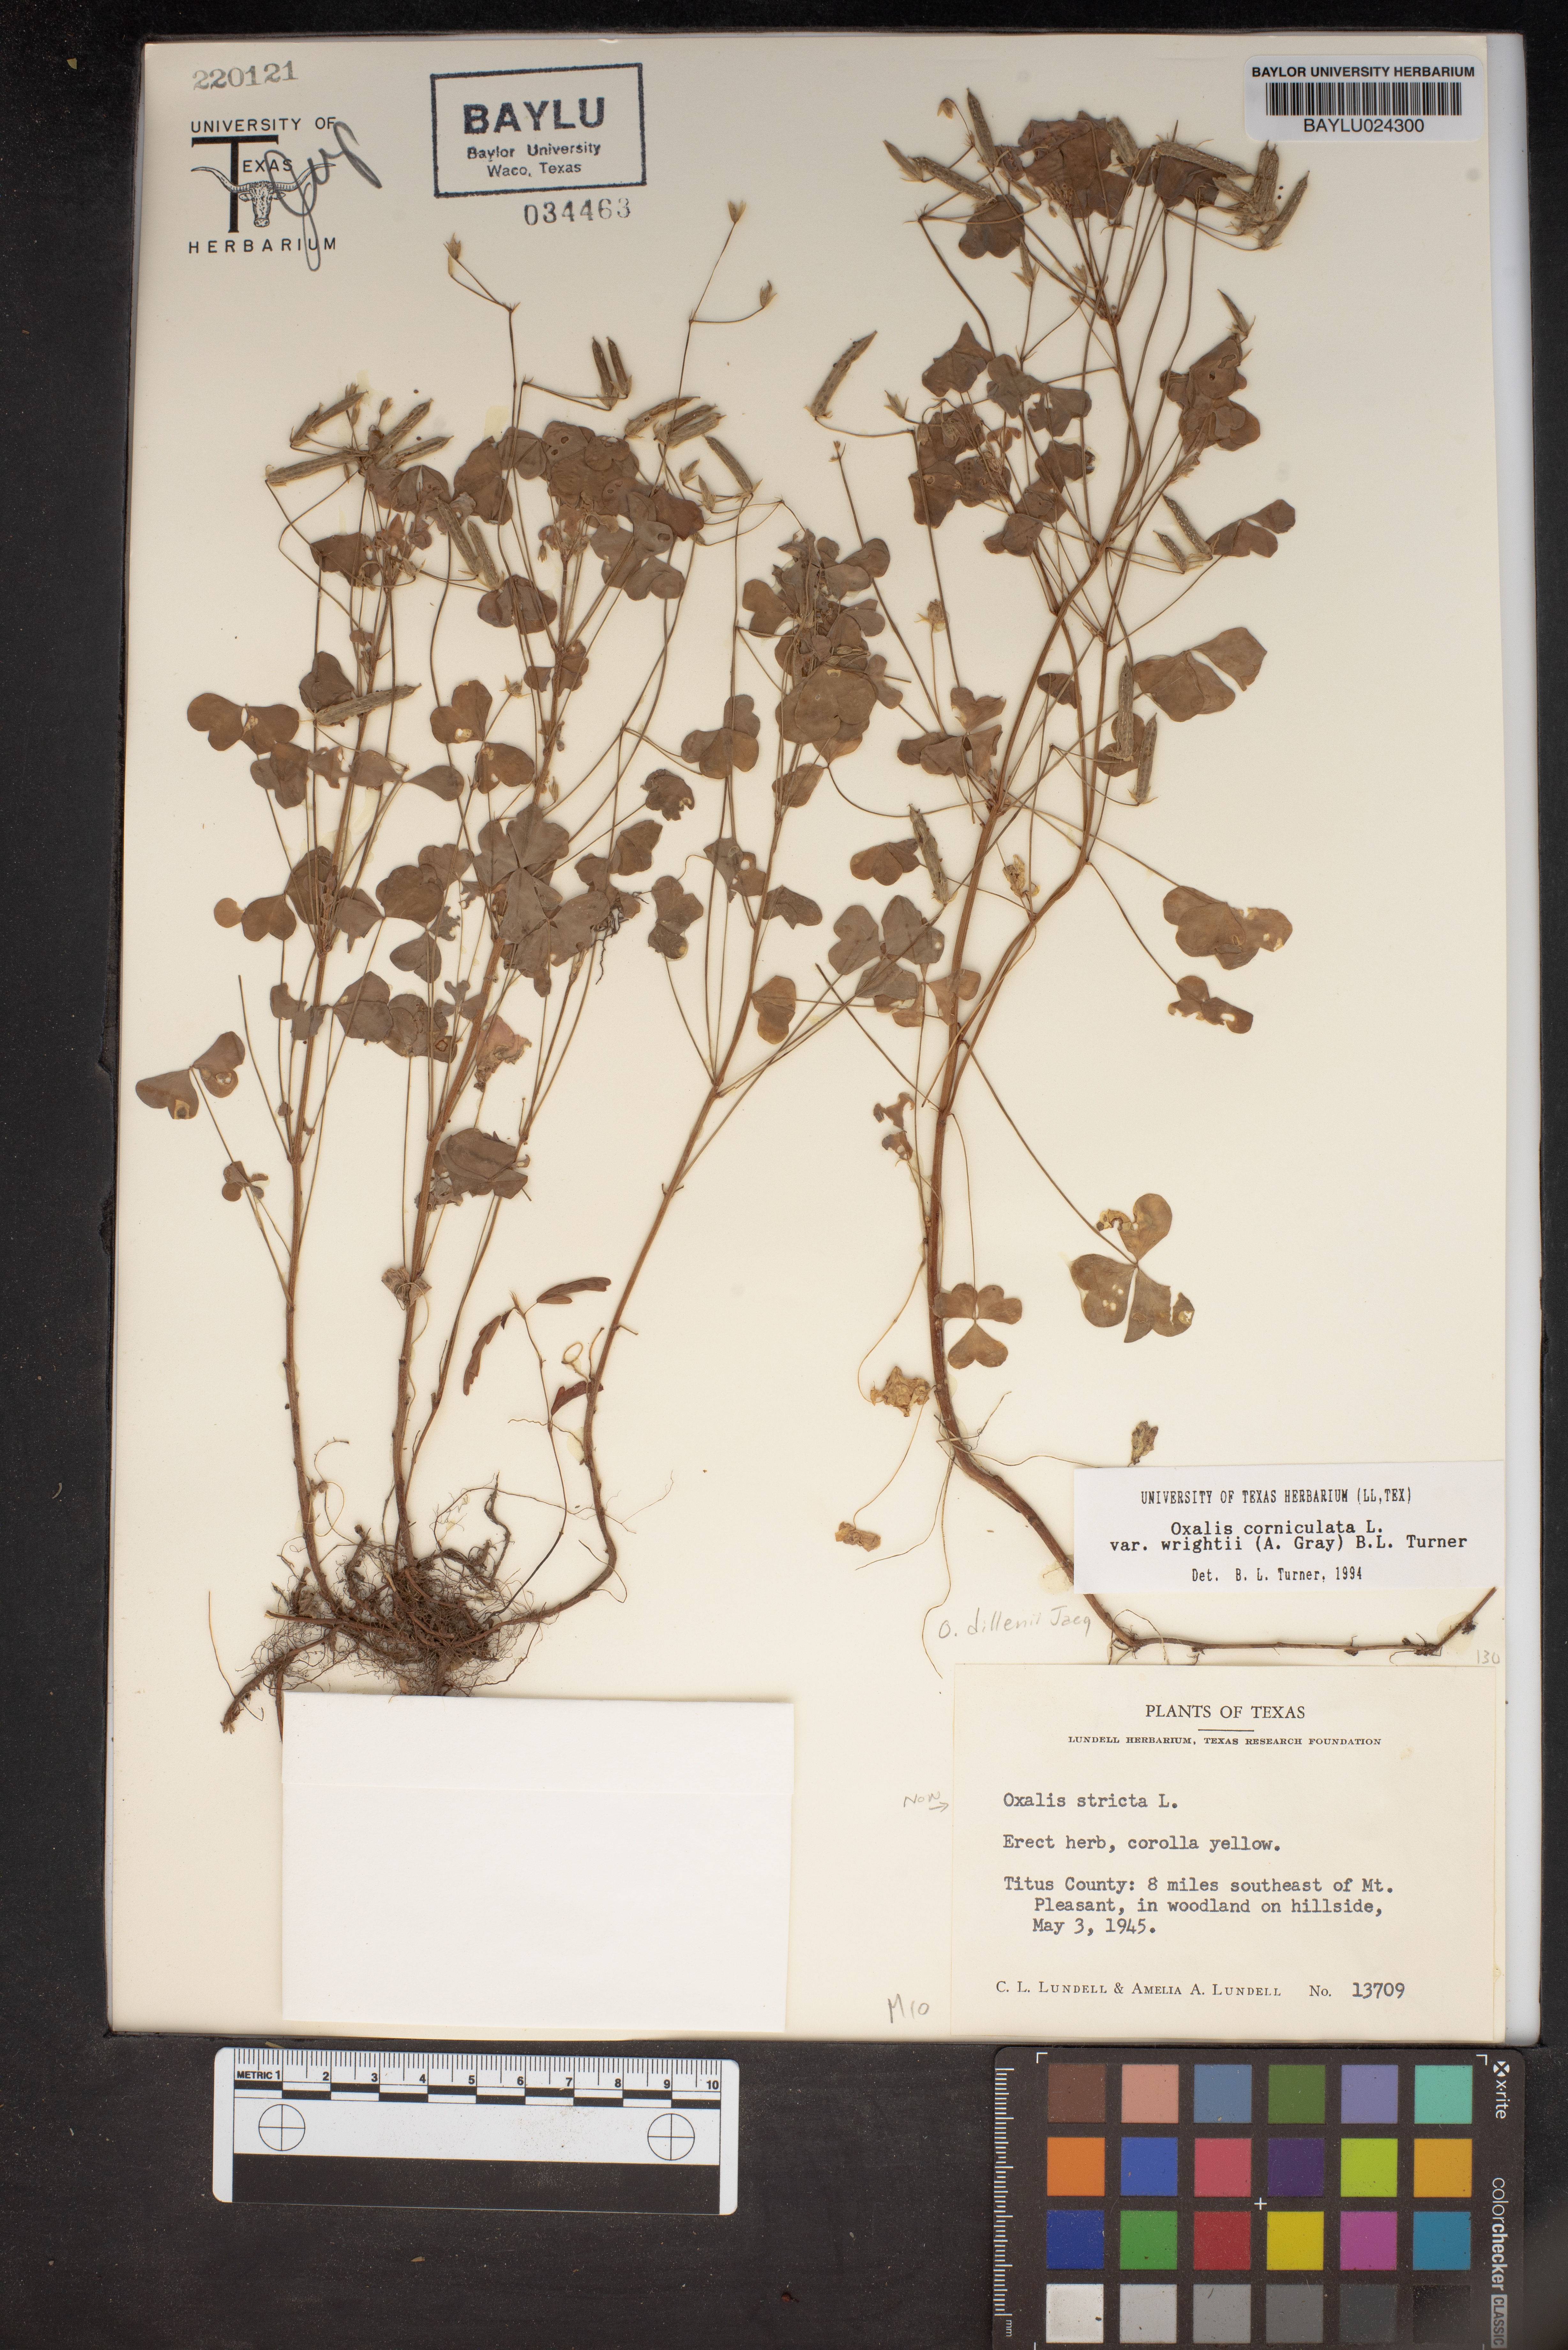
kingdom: Plantae
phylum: Tracheophyta
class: Magnoliopsida
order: Oxalidales
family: Oxalidaceae
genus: Oxalis
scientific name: Oxalis stricta
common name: Upright yellow-sorrel
